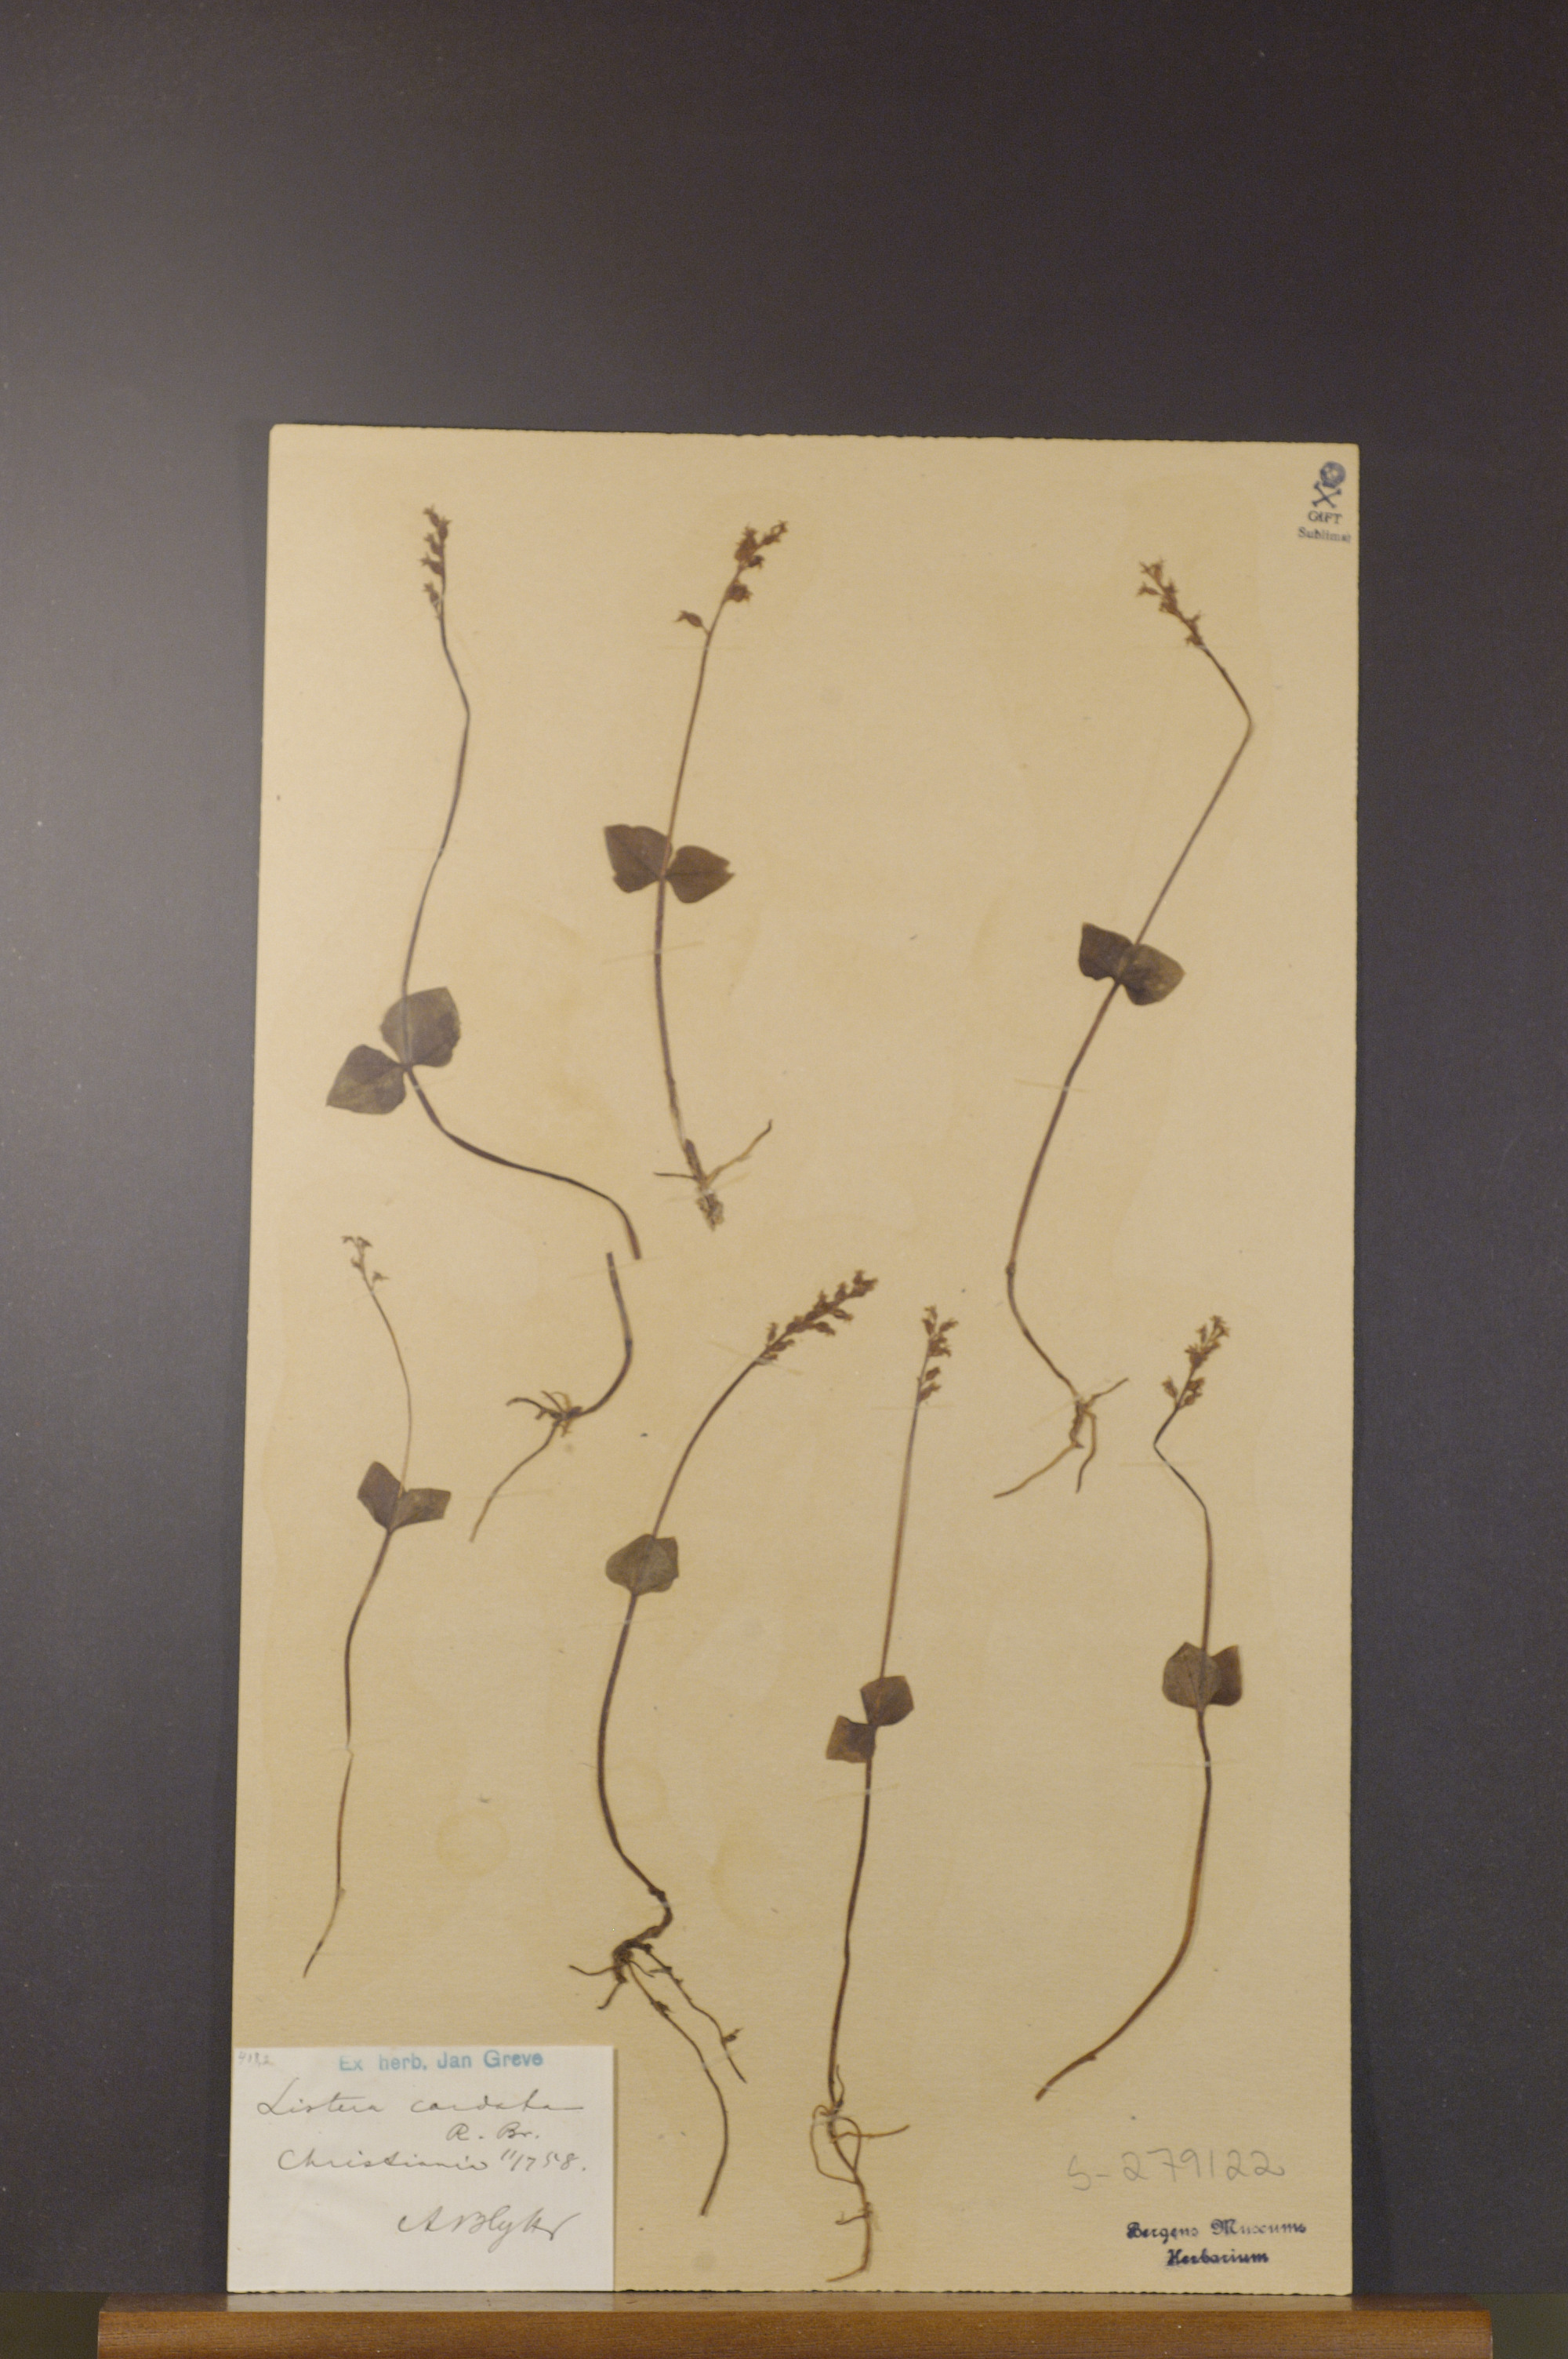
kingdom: Plantae
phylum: Tracheophyta
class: Liliopsida
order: Asparagales
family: Orchidaceae
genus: Neottia
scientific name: Neottia cordata
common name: Lesser twayblade
